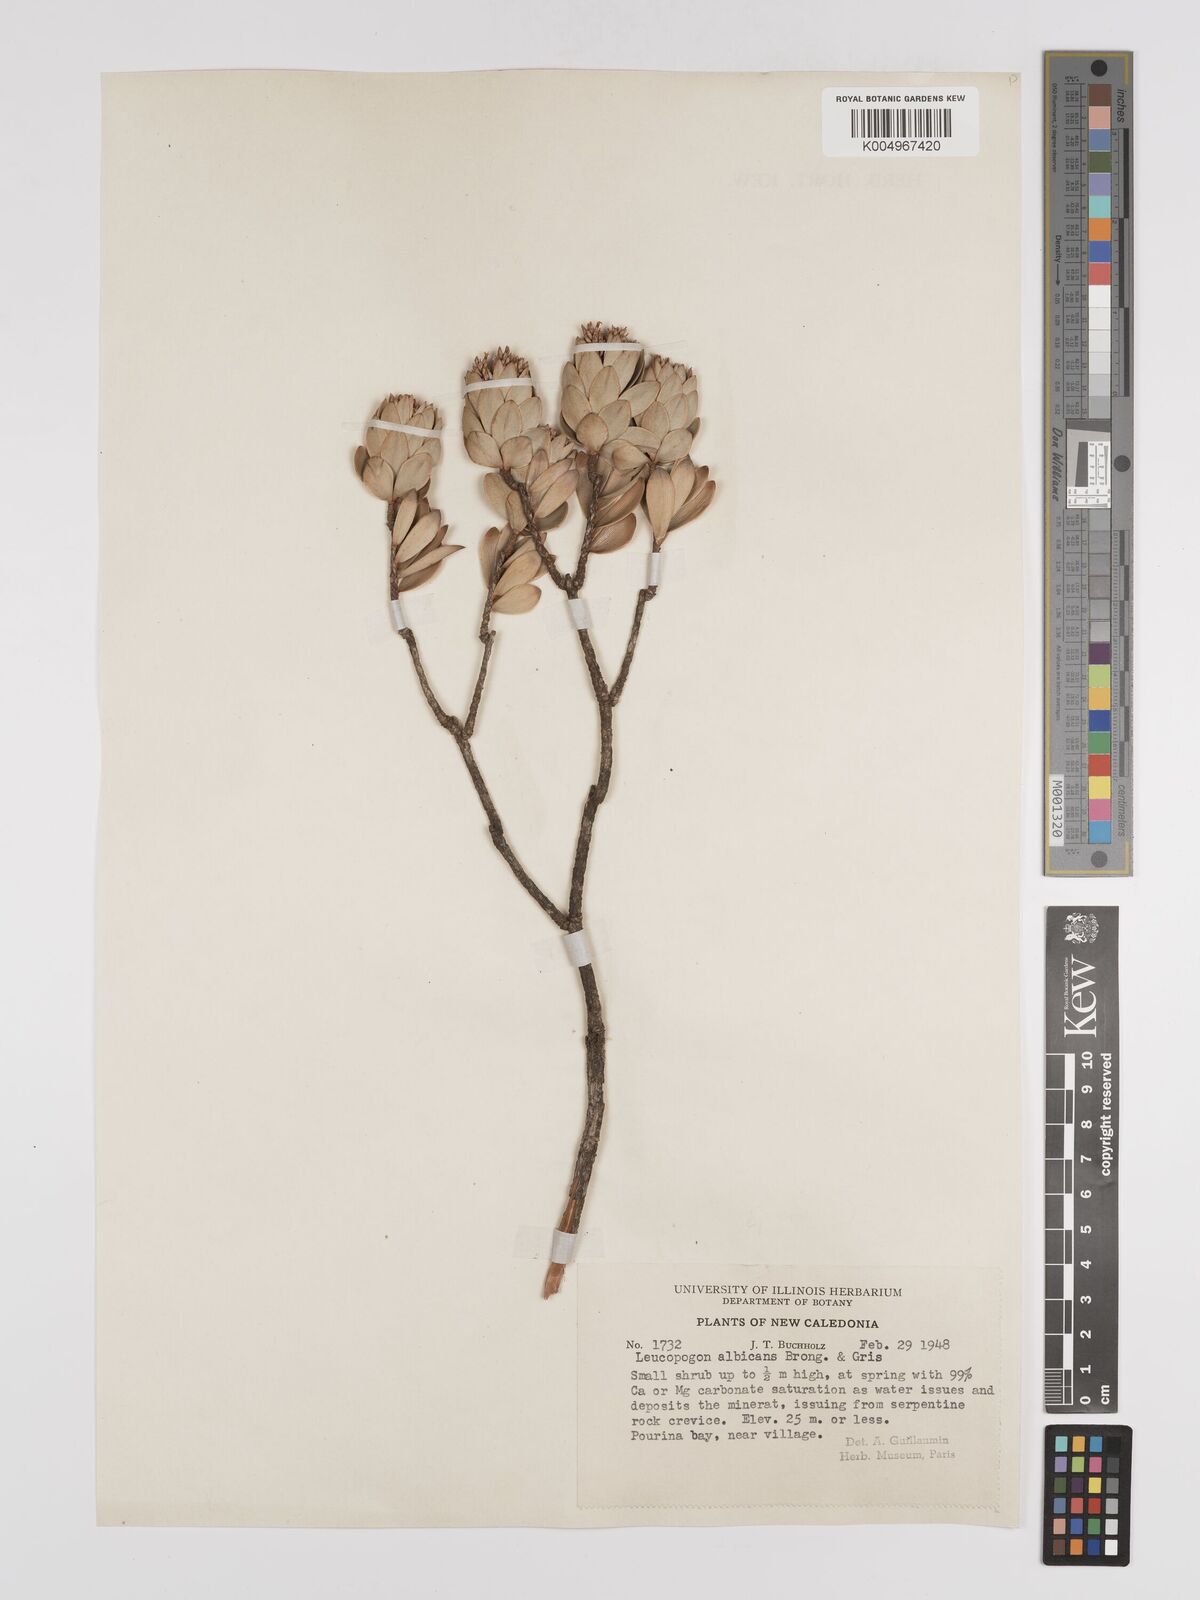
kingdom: Plantae
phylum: Tracheophyta
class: Magnoliopsida
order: Ericales
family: Ericaceae
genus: Cyathopsis
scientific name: Cyathopsis albicans
